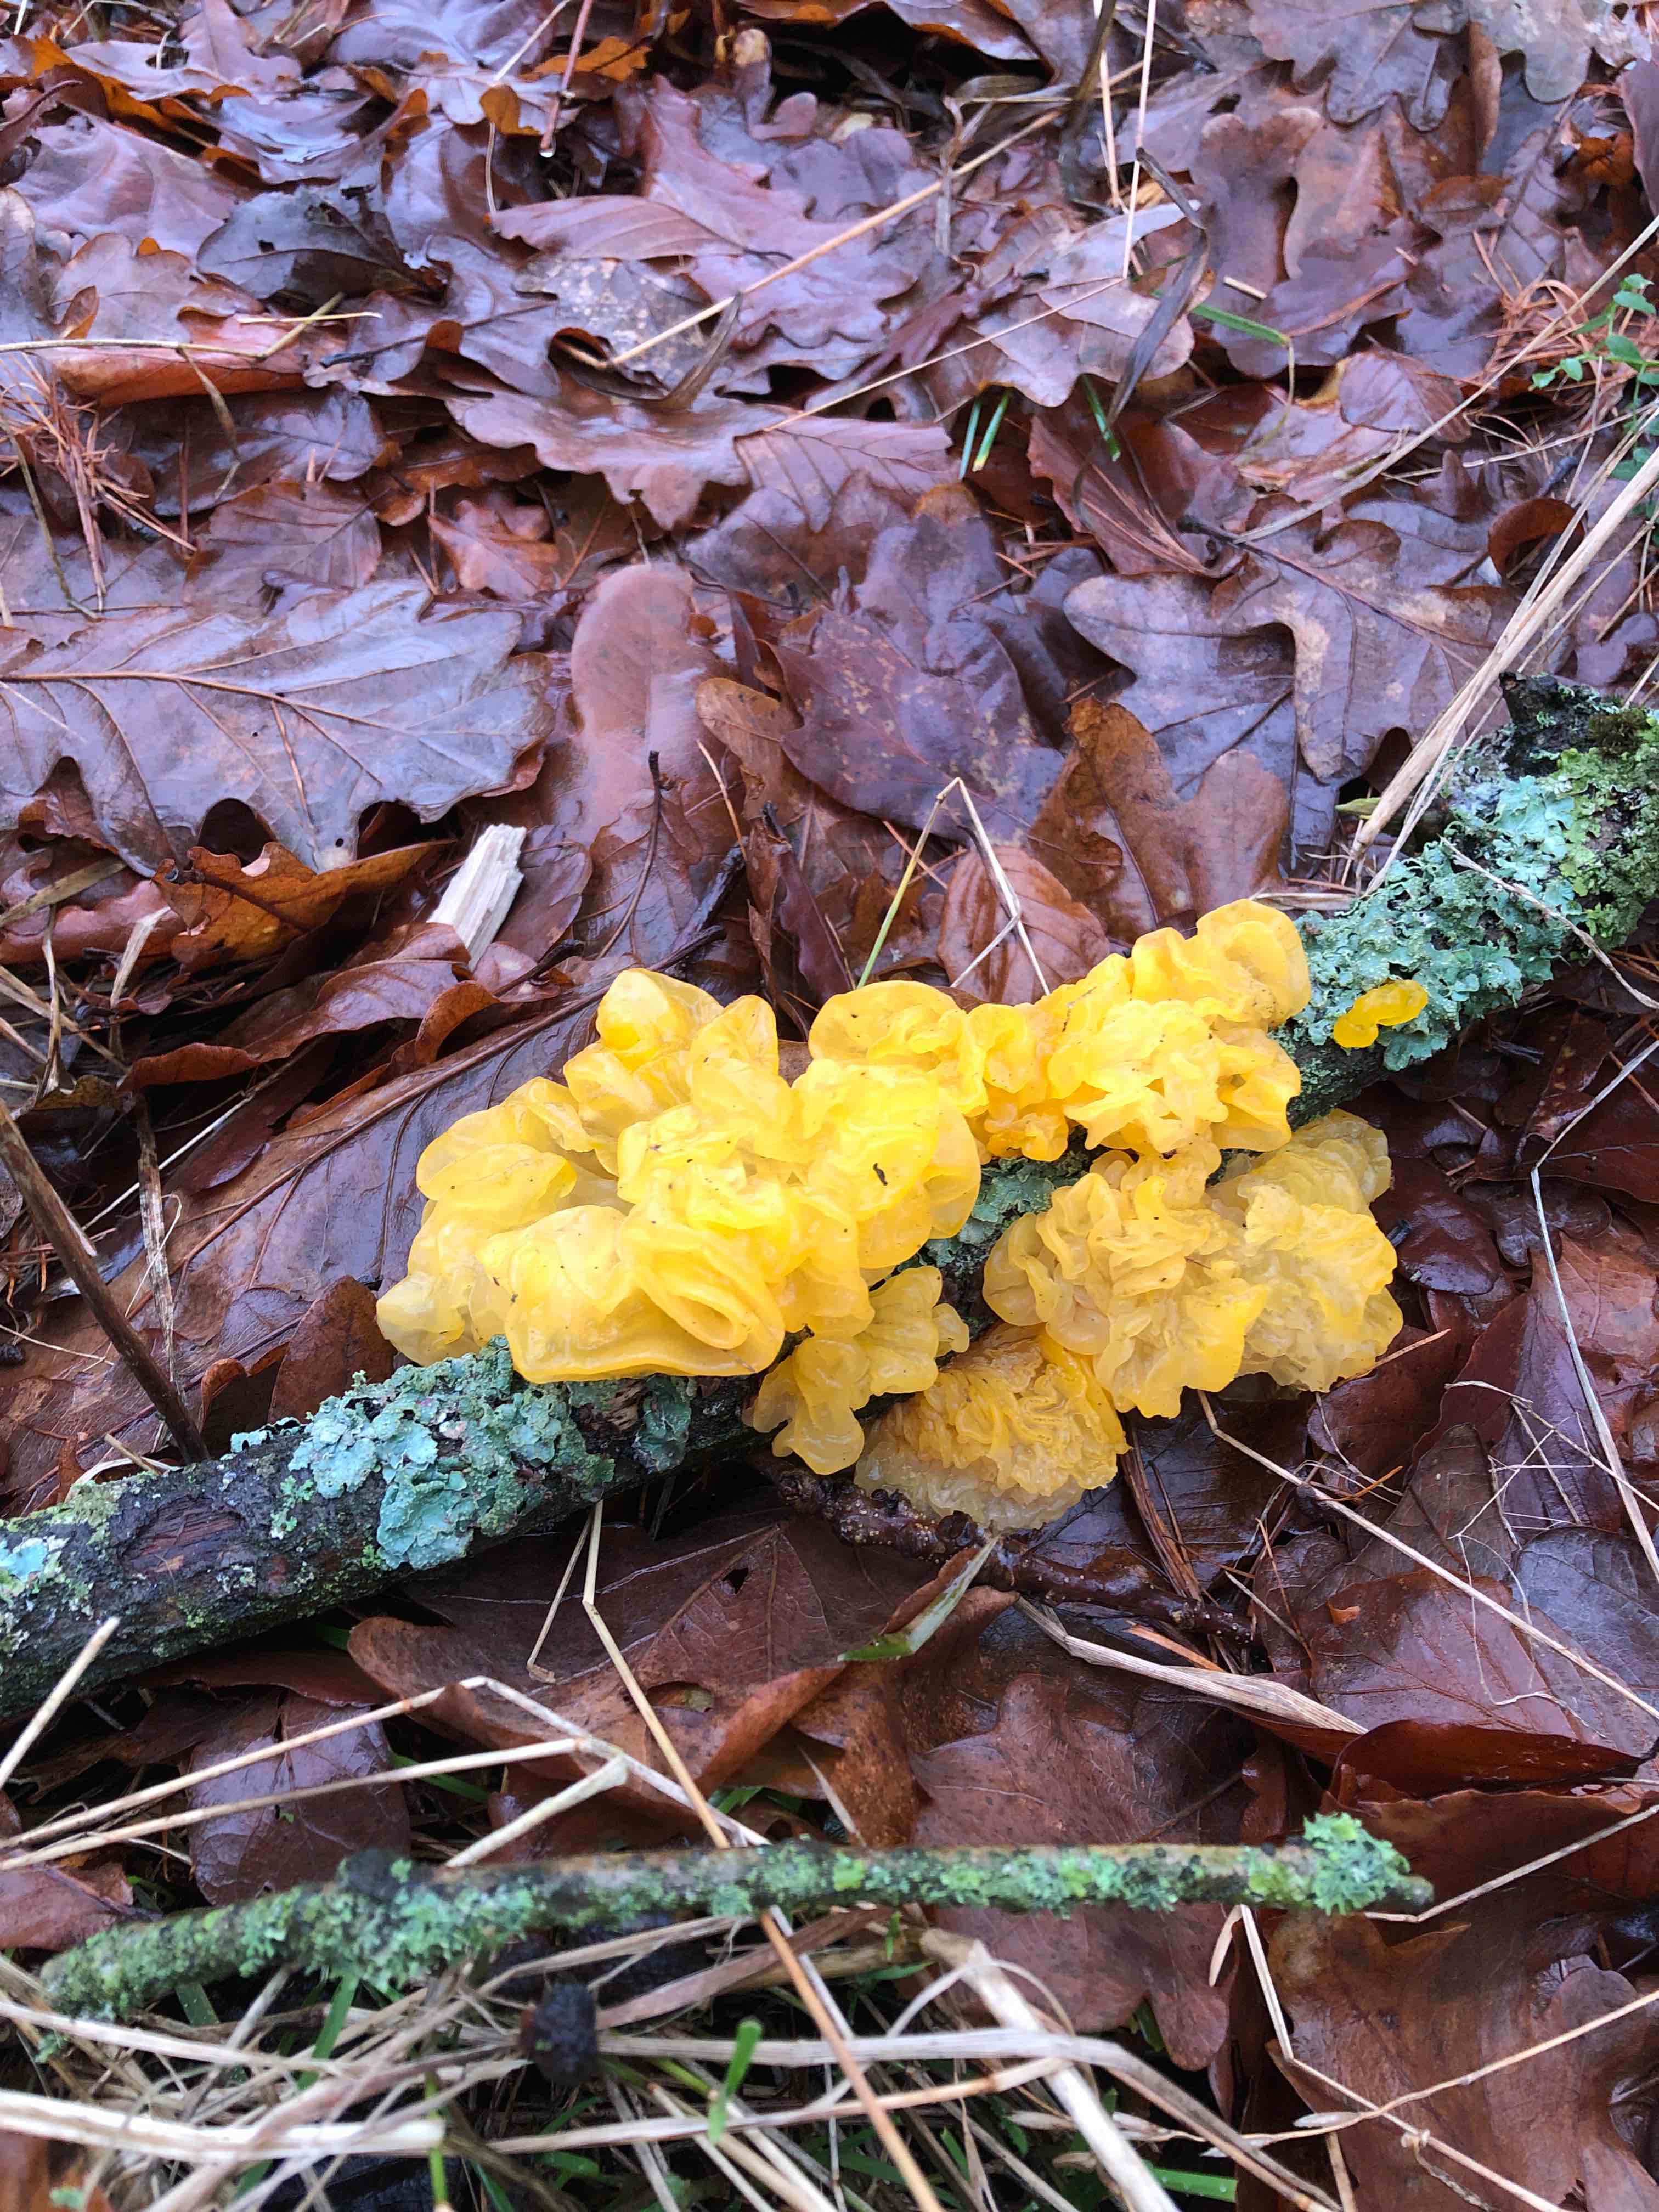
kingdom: Fungi
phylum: Basidiomycota
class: Tremellomycetes
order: Tremellales
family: Tremellaceae
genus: Tremella
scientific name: Tremella mesenterica
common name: gul bævresvamp
